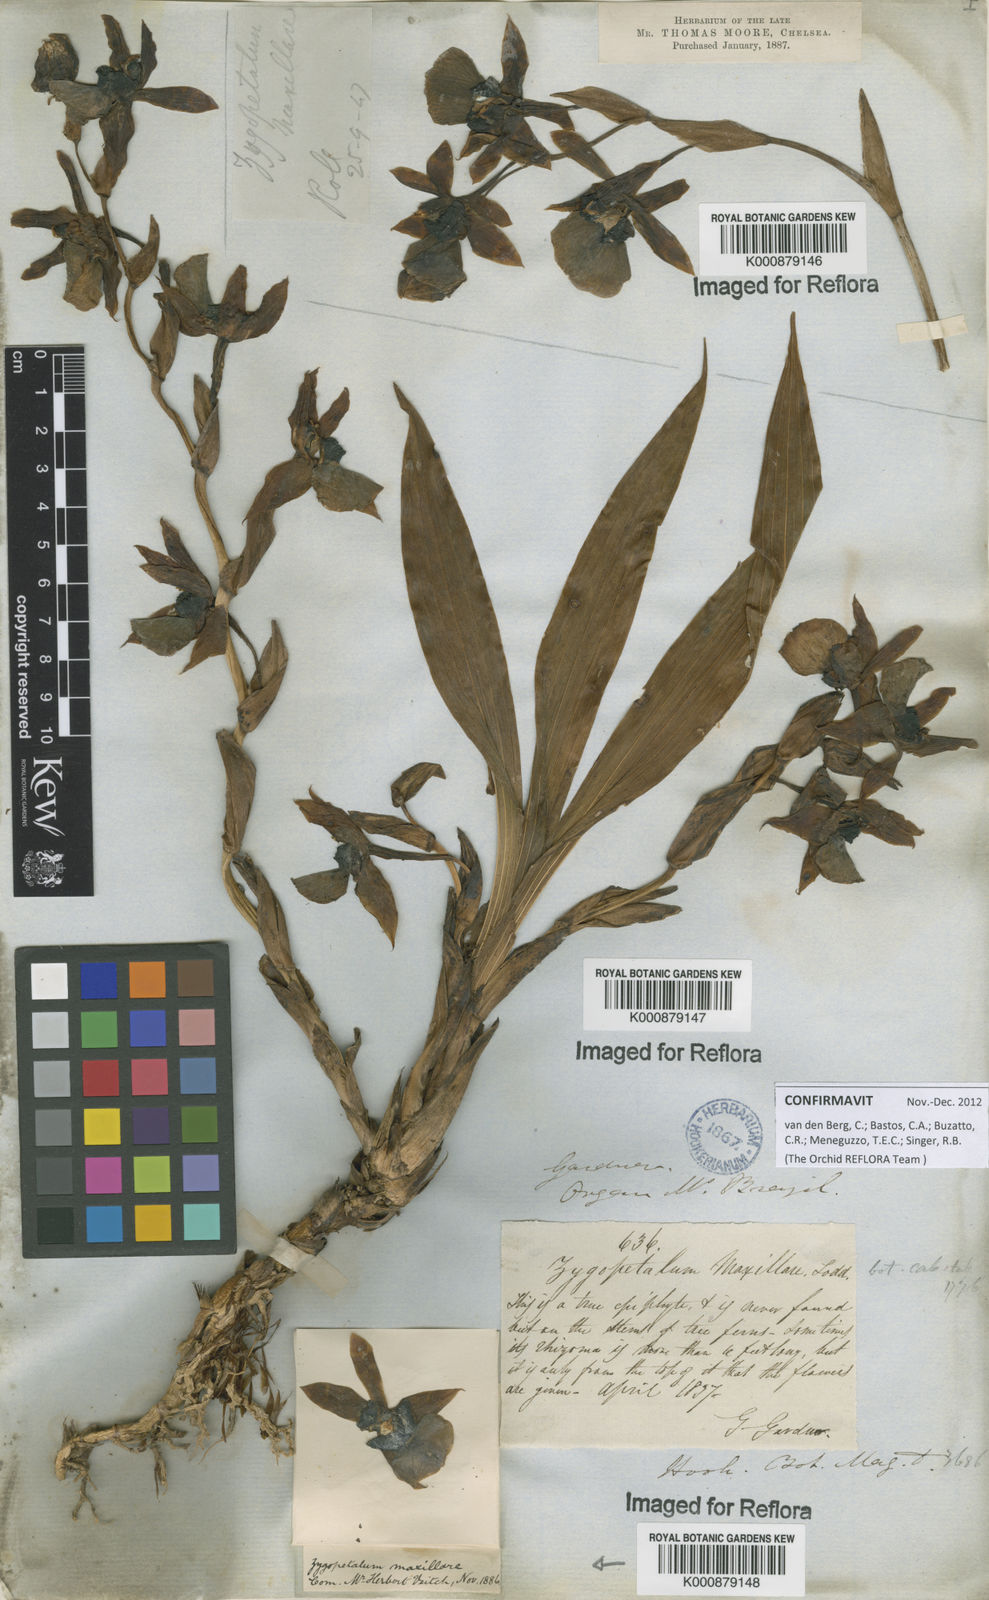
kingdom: Plantae
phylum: Tracheophyta
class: Liliopsida
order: Asparagales
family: Orchidaceae
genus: Zygopetalum
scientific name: Zygopetalum maxillare
